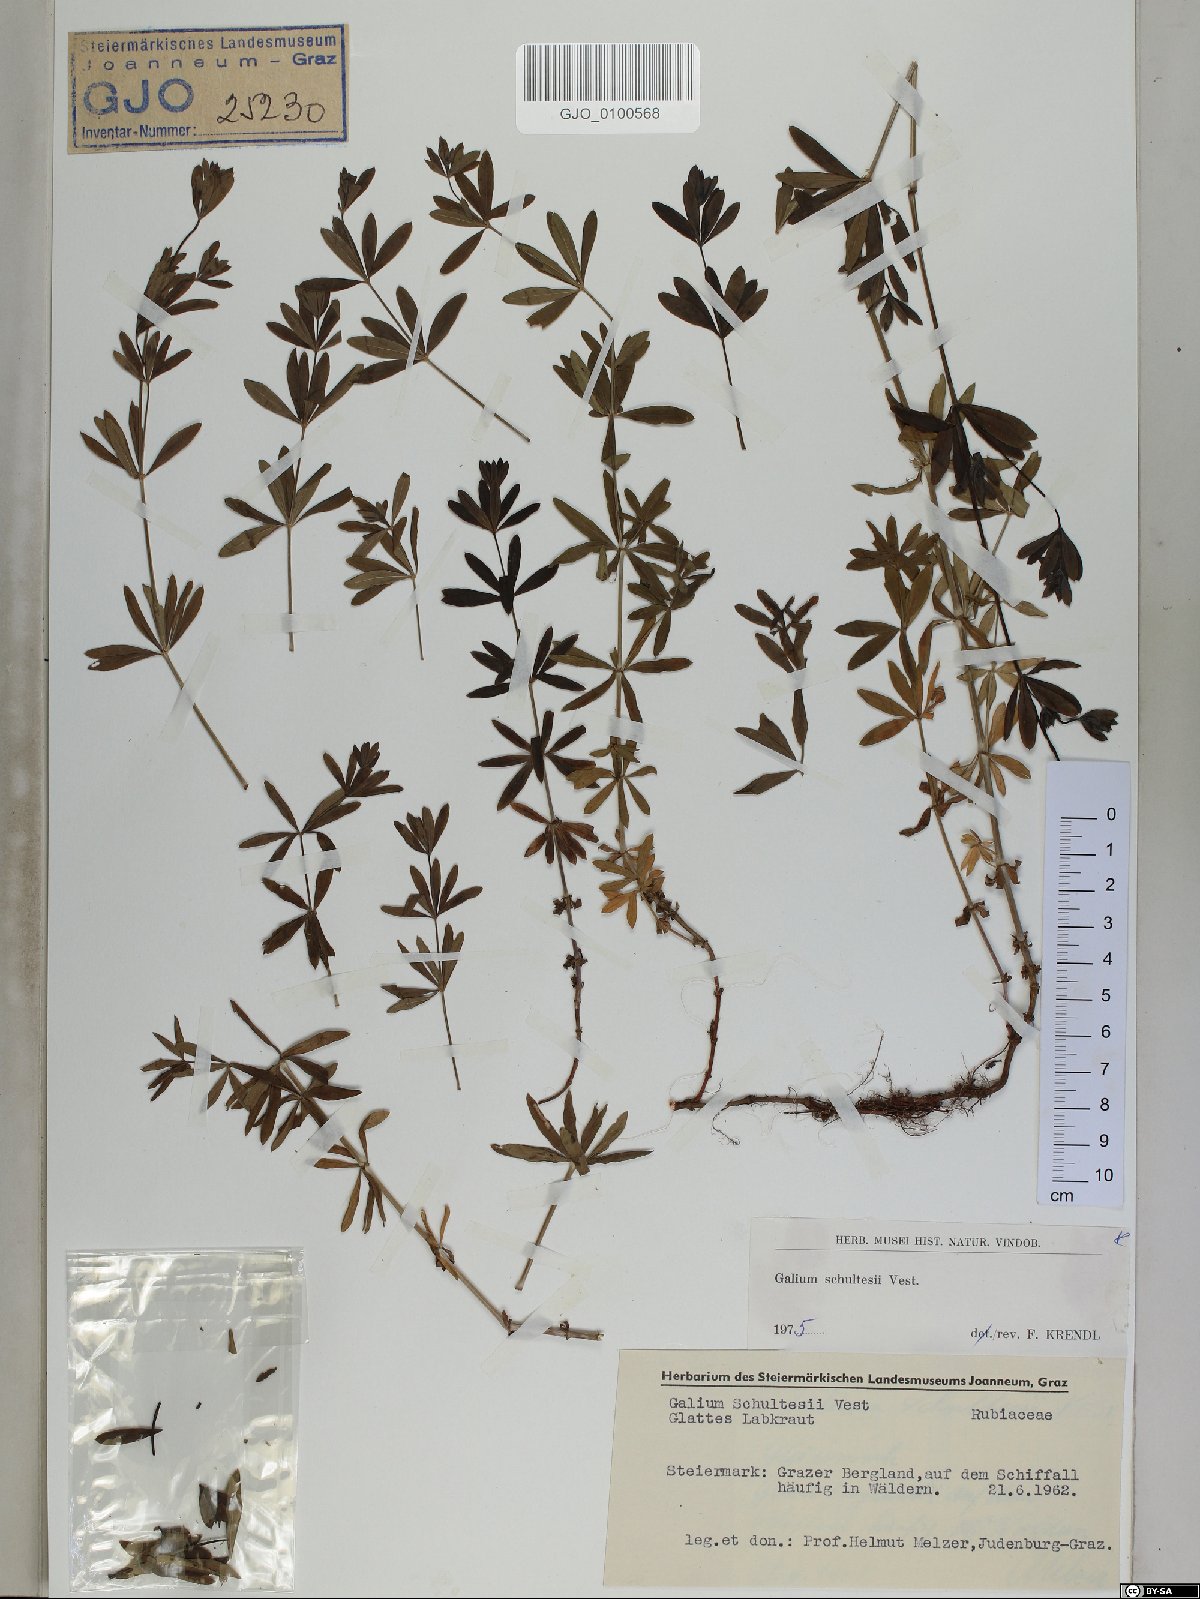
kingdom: Plantae
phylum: Tracheophyta
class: Magnoliopsida
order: Gentianales
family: Rubiaceae
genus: Galium
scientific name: Galium intermedium
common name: Bedstraw
